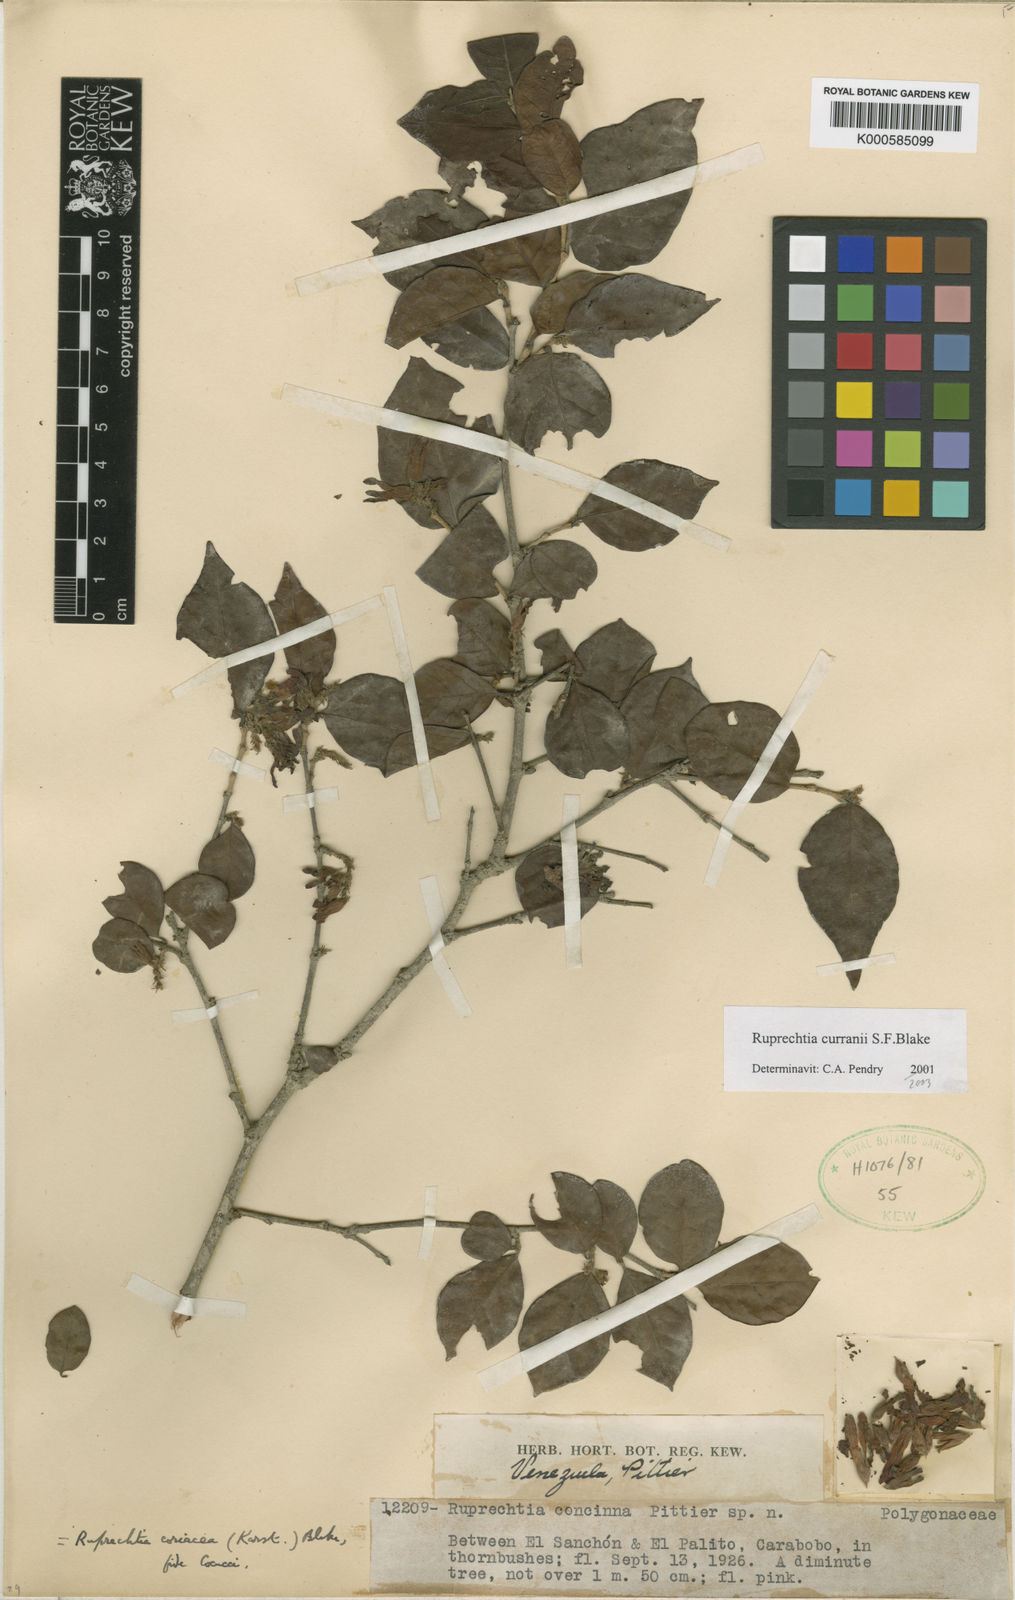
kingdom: Plantae
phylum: Tracheophyta
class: Magnoliopsida
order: Caryophyllales
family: Polygonaceae
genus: Ruprechtia
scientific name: Ruprechtia
